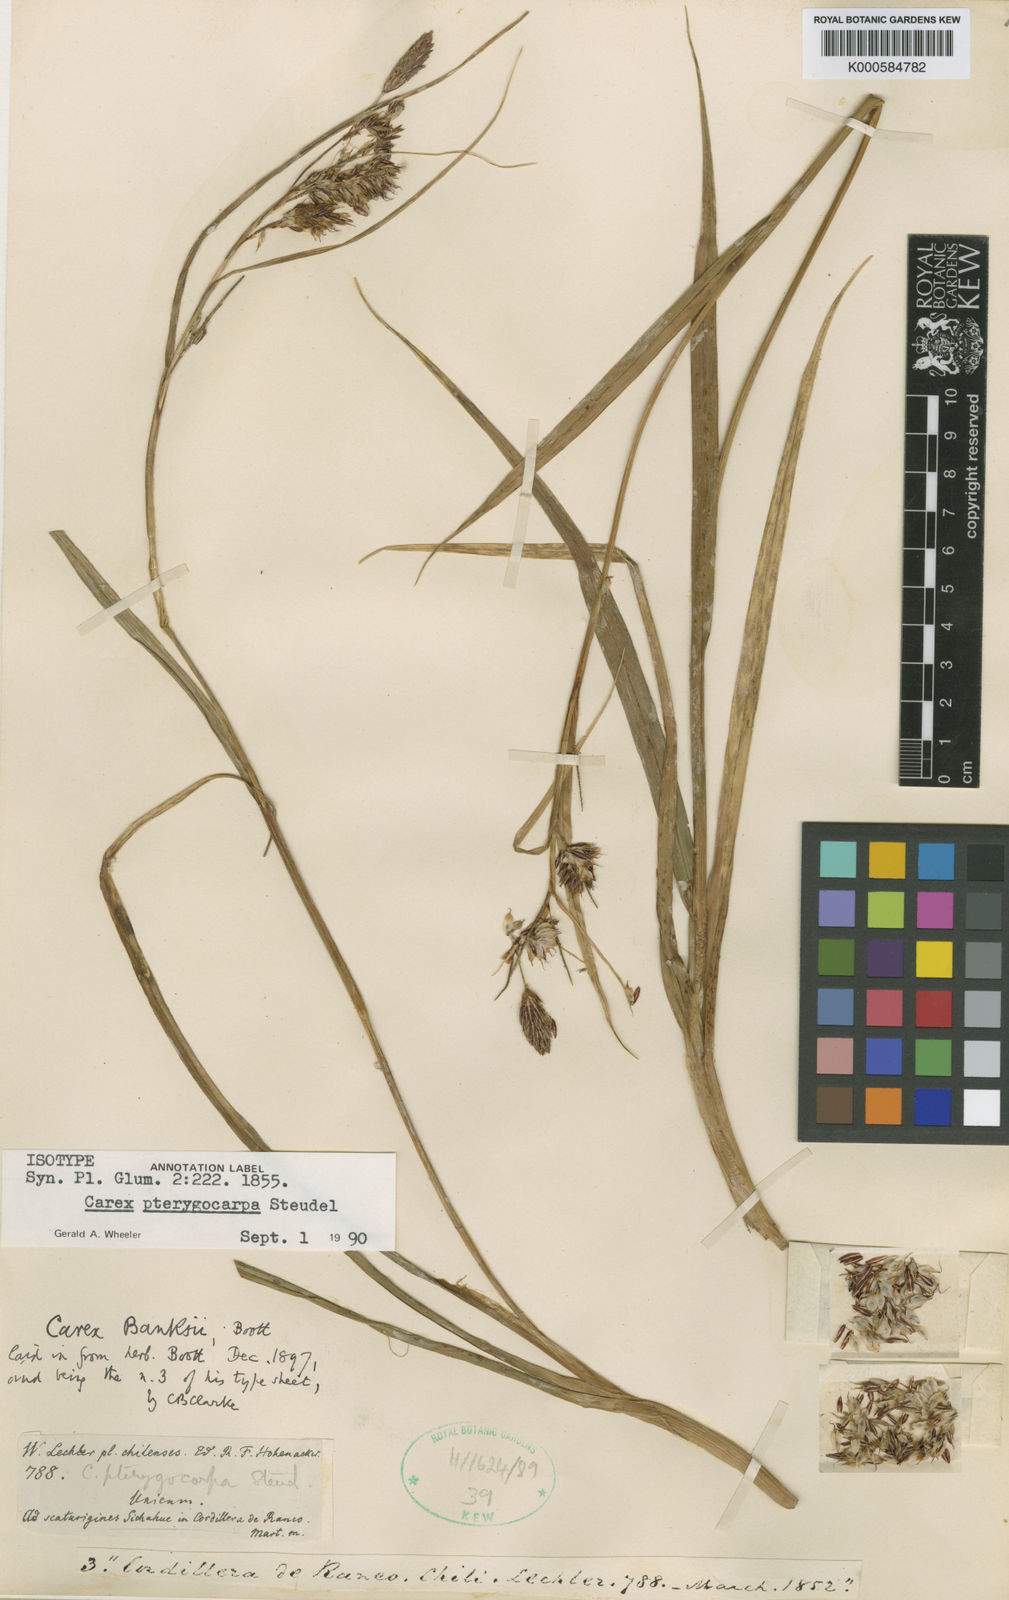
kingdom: Plantae
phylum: Tracheophyta
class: Liliopsida
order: Poales
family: Cyperaceae
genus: Carex
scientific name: Carex banksii
